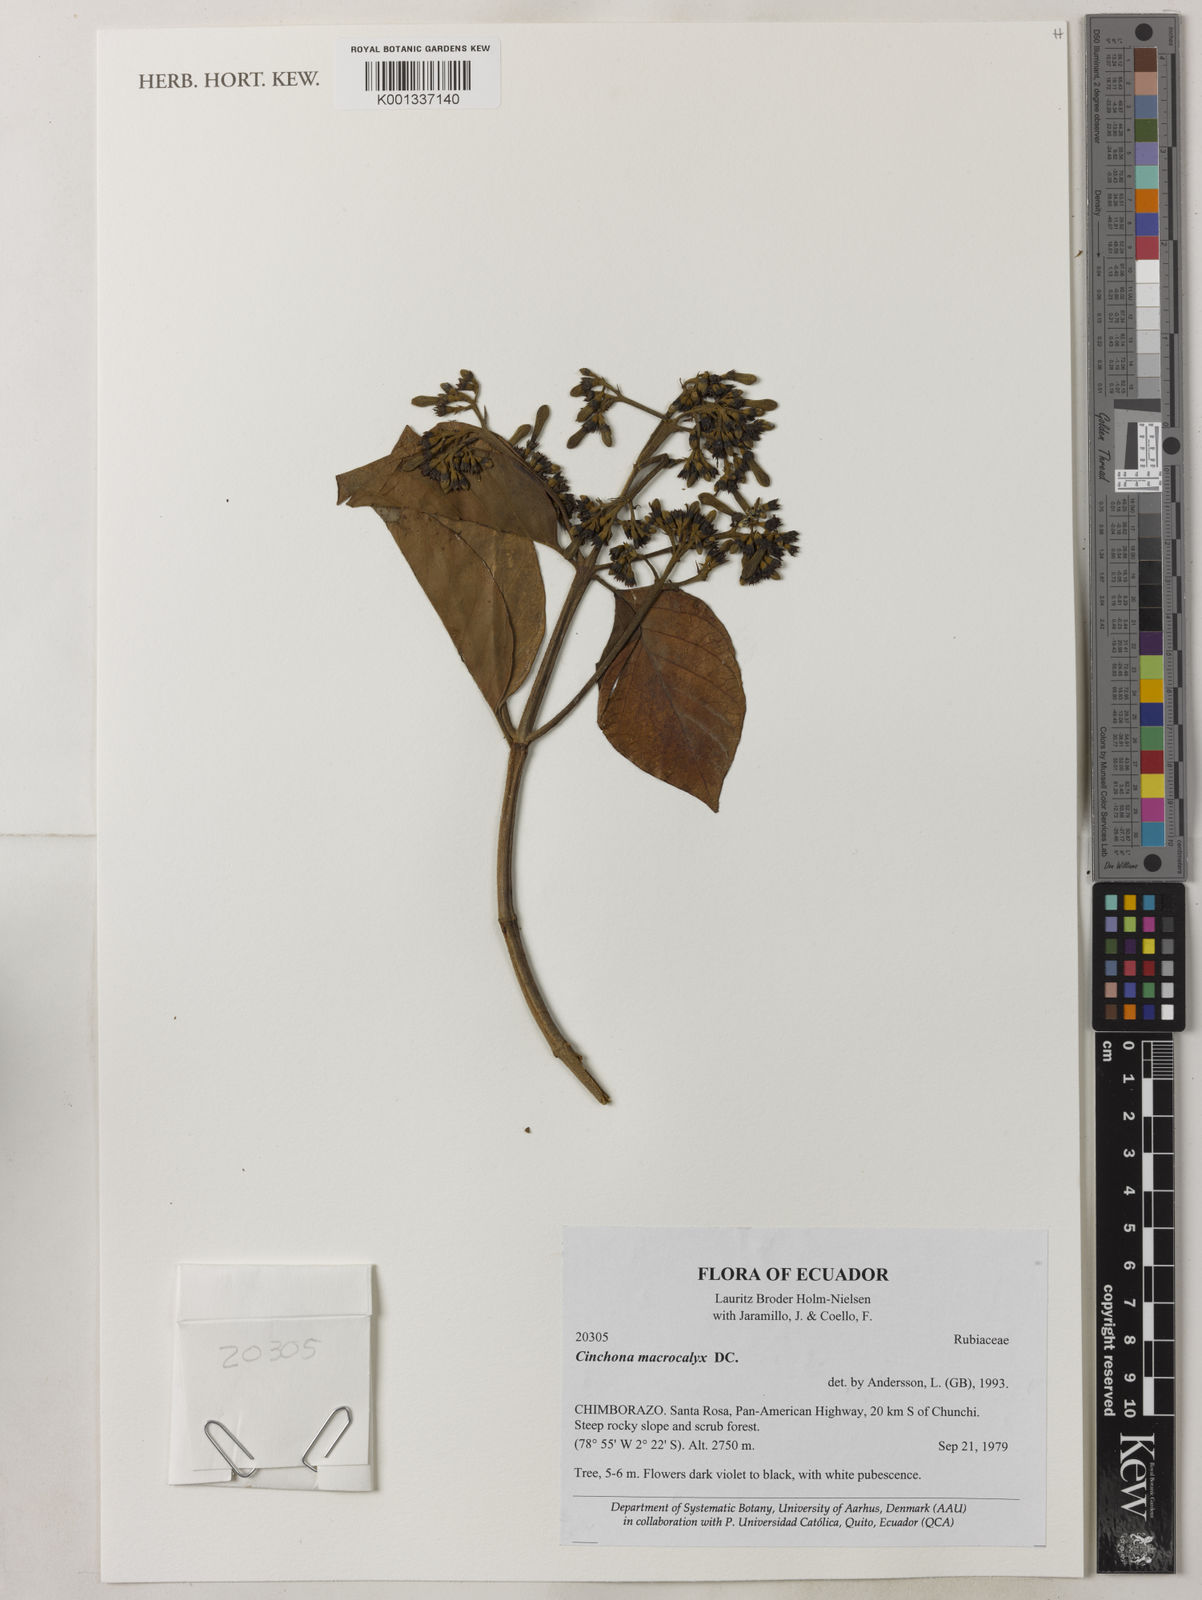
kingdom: Plantae
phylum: Tracheophyta
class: Magnoliopsida
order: Gentianales
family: Rubiaceae
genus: Cinchona
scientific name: Cinchona macrocalyx
